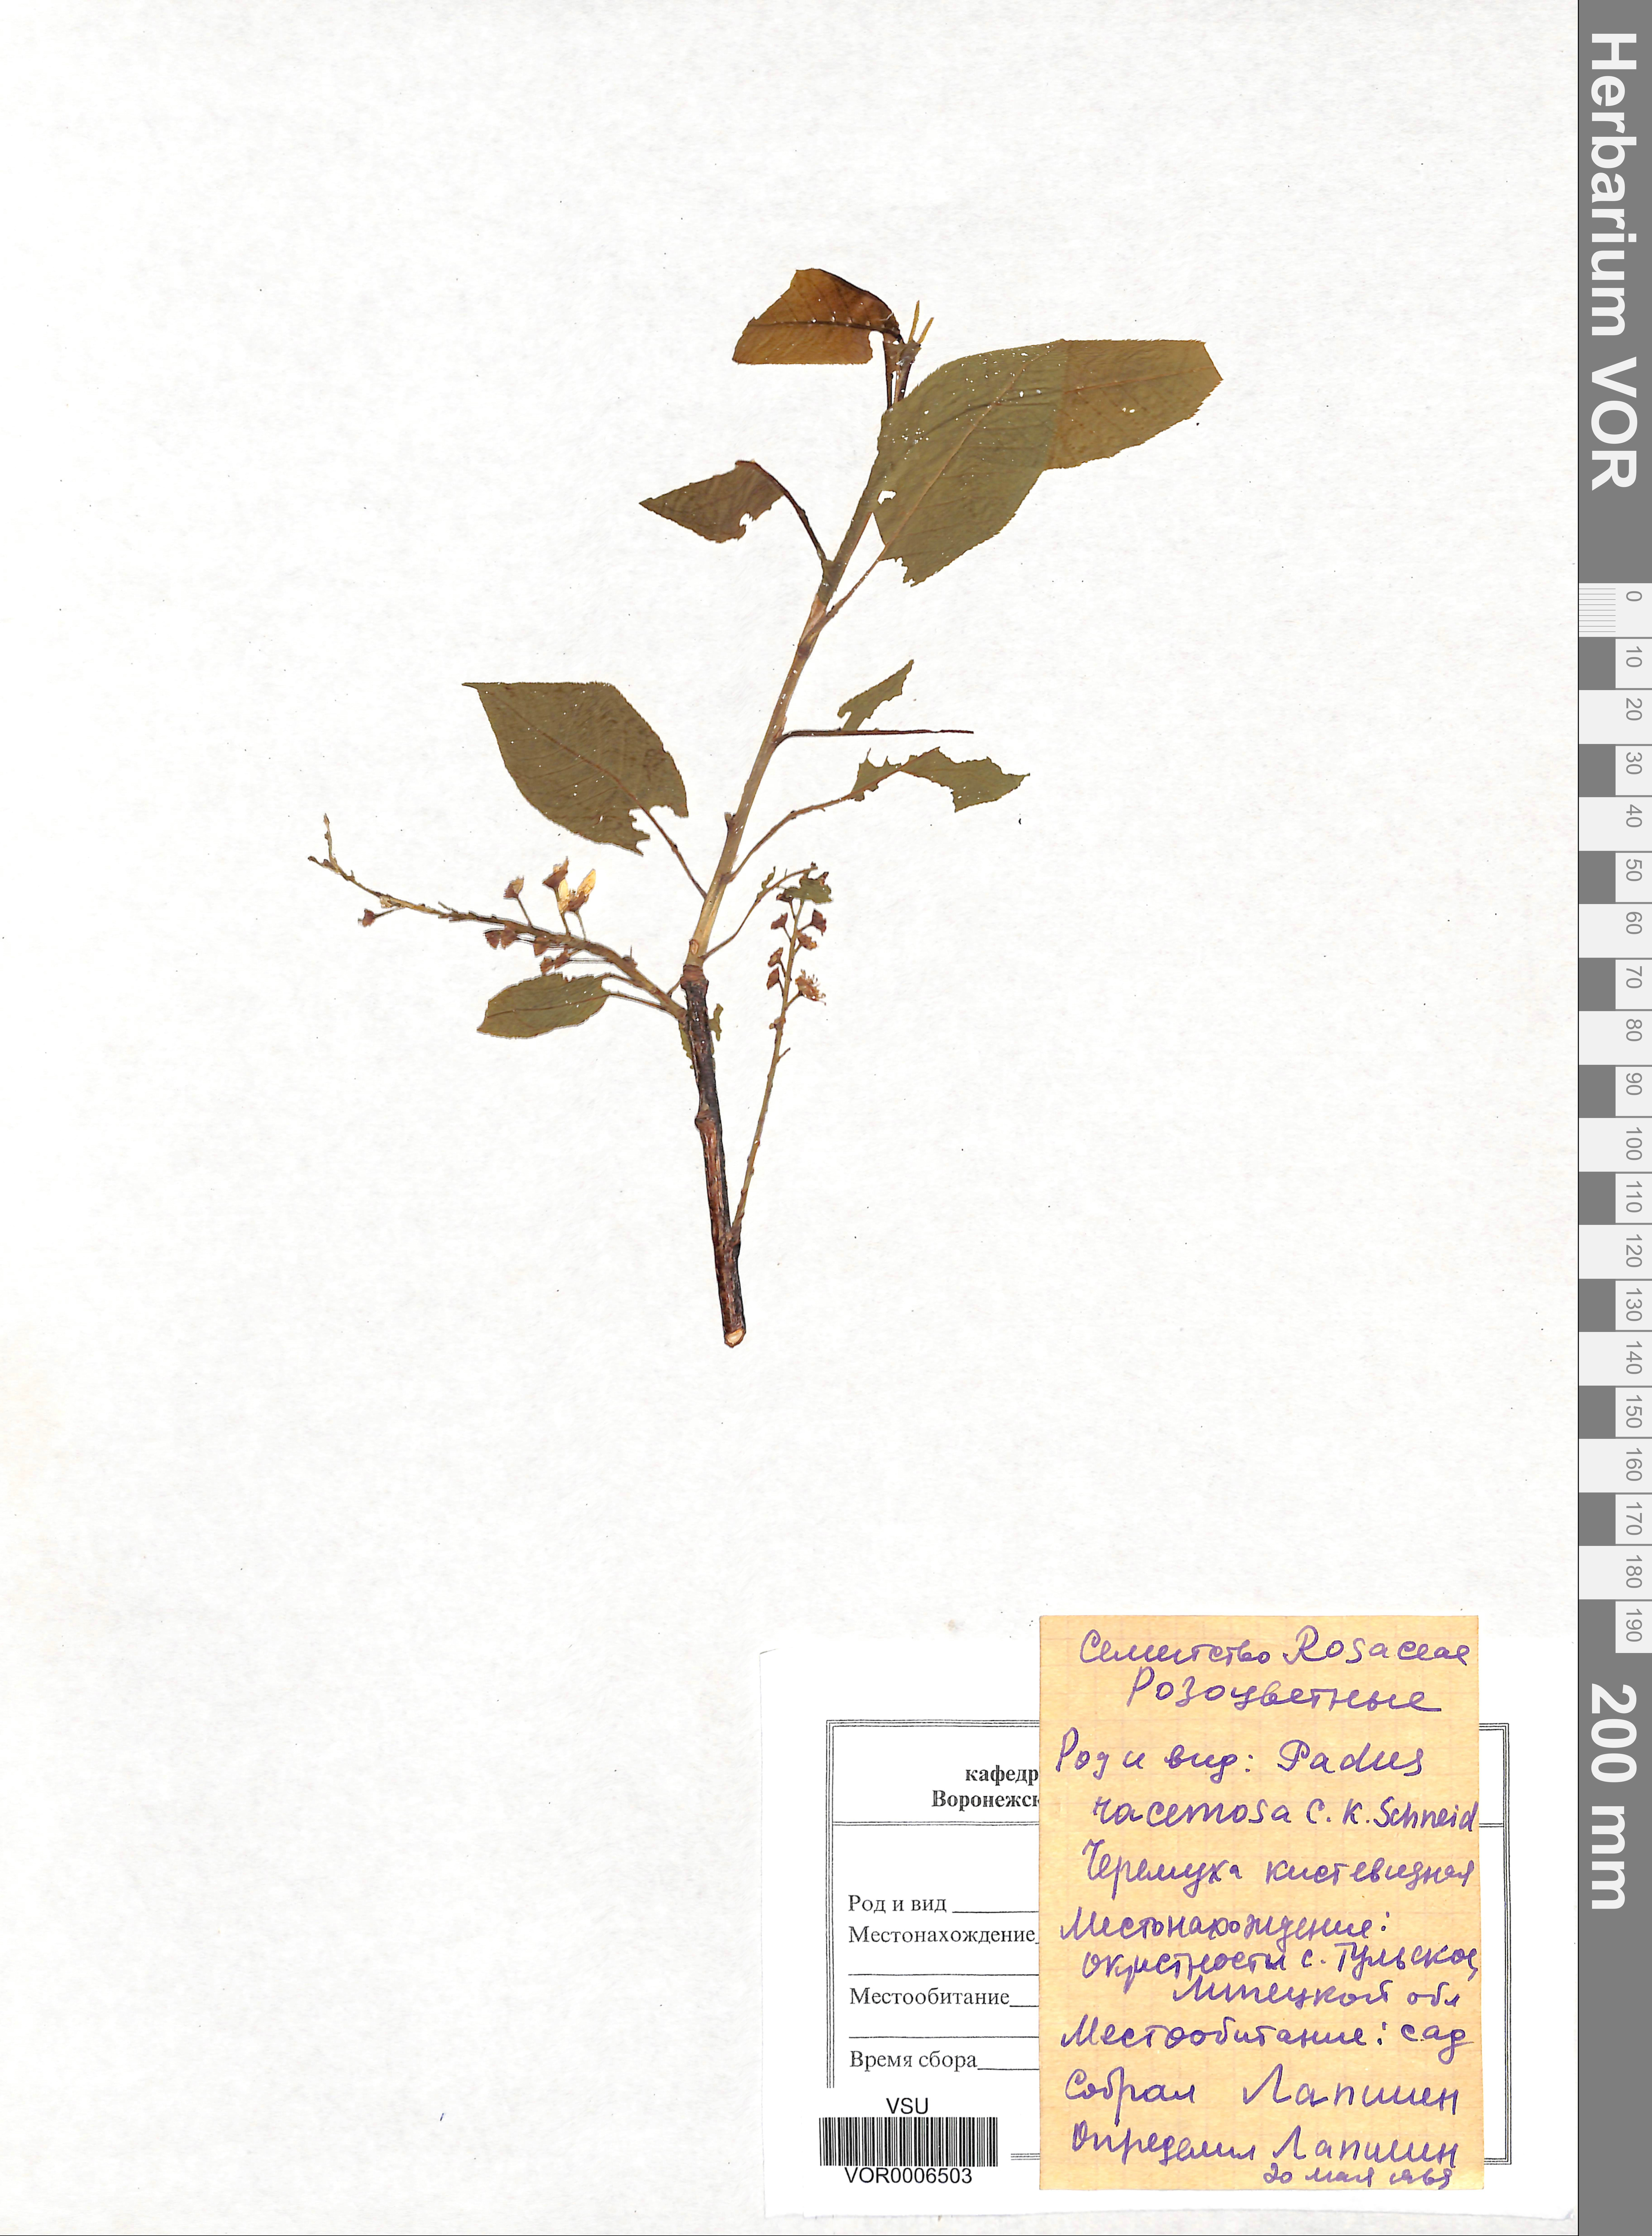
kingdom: Plantae
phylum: Tracheophyta
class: Magnoliopsida
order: Rosales
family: Rosaceae
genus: Prunus
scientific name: Prunus padus
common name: Bird cherry
